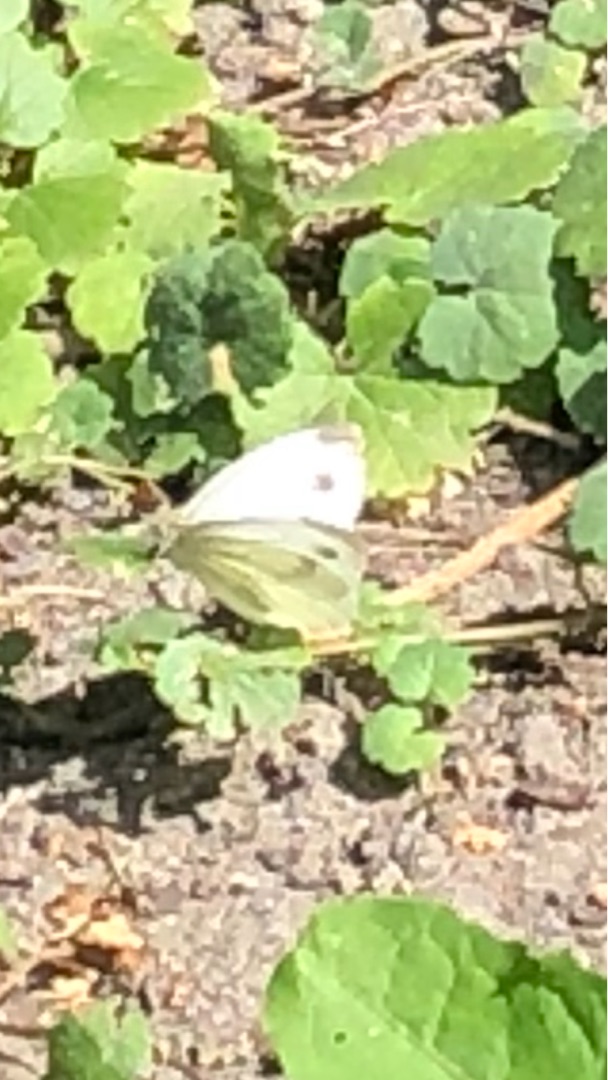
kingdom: Animalia
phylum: Arthropoda
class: Insecta
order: Lepidoptera
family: Pieridae
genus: Pieris
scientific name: Pieris napi
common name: Grønåret kålsommerfugl
